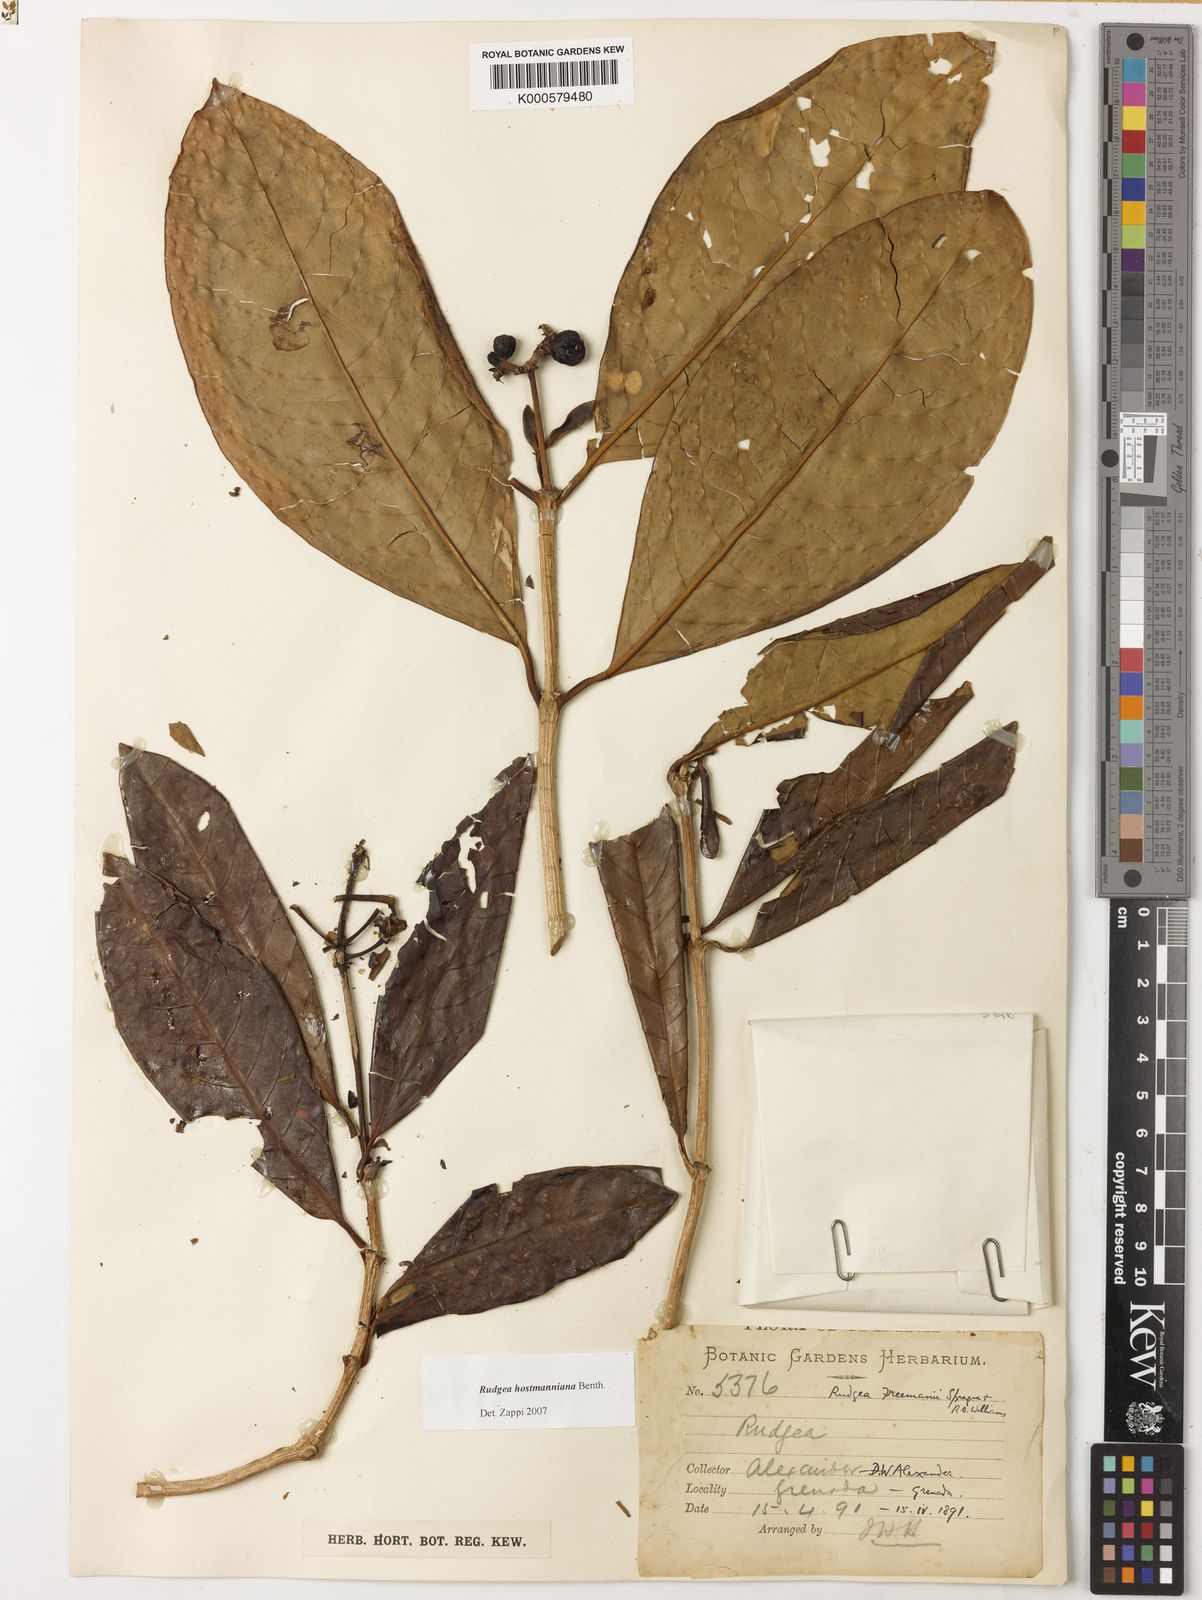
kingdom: Plantae
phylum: Tracheophyta
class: Magnoliopsida
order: Gentianales
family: Rubiaceae
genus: Rudgea
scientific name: Rudgea hostmanniana
